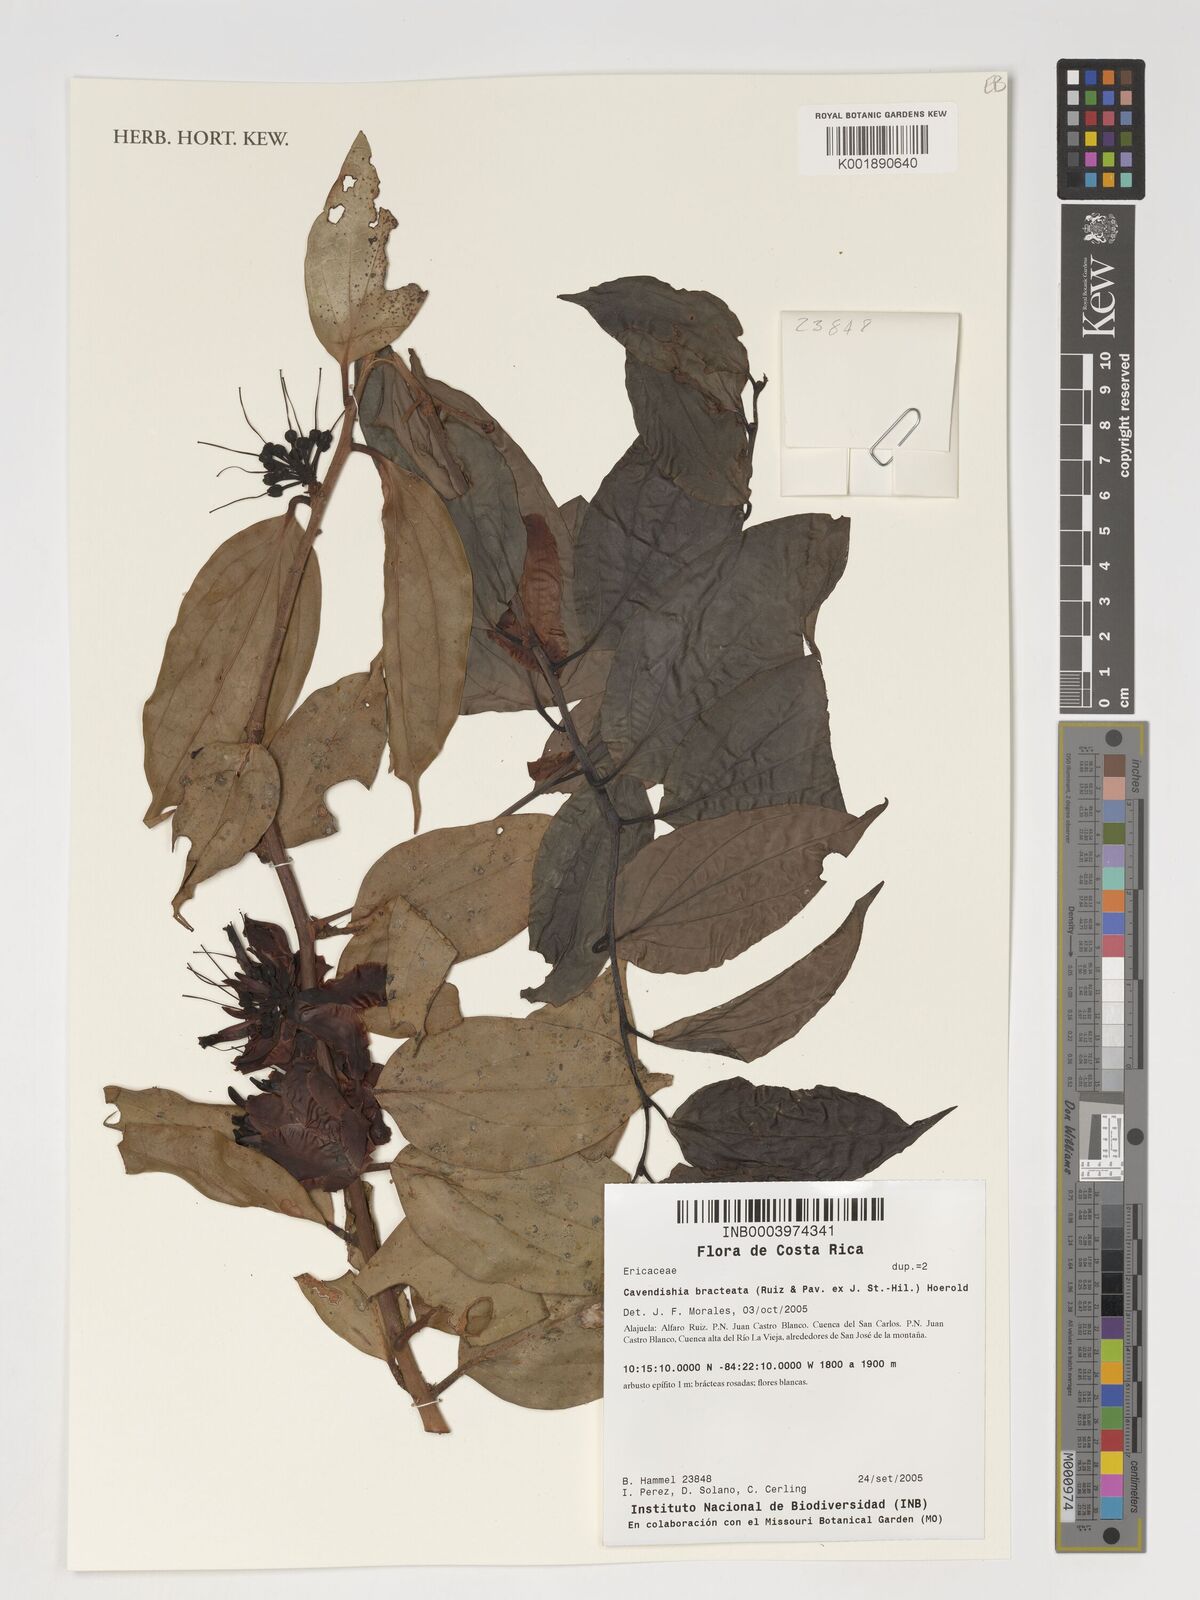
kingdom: Plantae
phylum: Tracheophyta
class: Magnoliopsida
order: Ericales
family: Ericaceae
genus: Cavendishia
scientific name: Cavendishia bracteata
